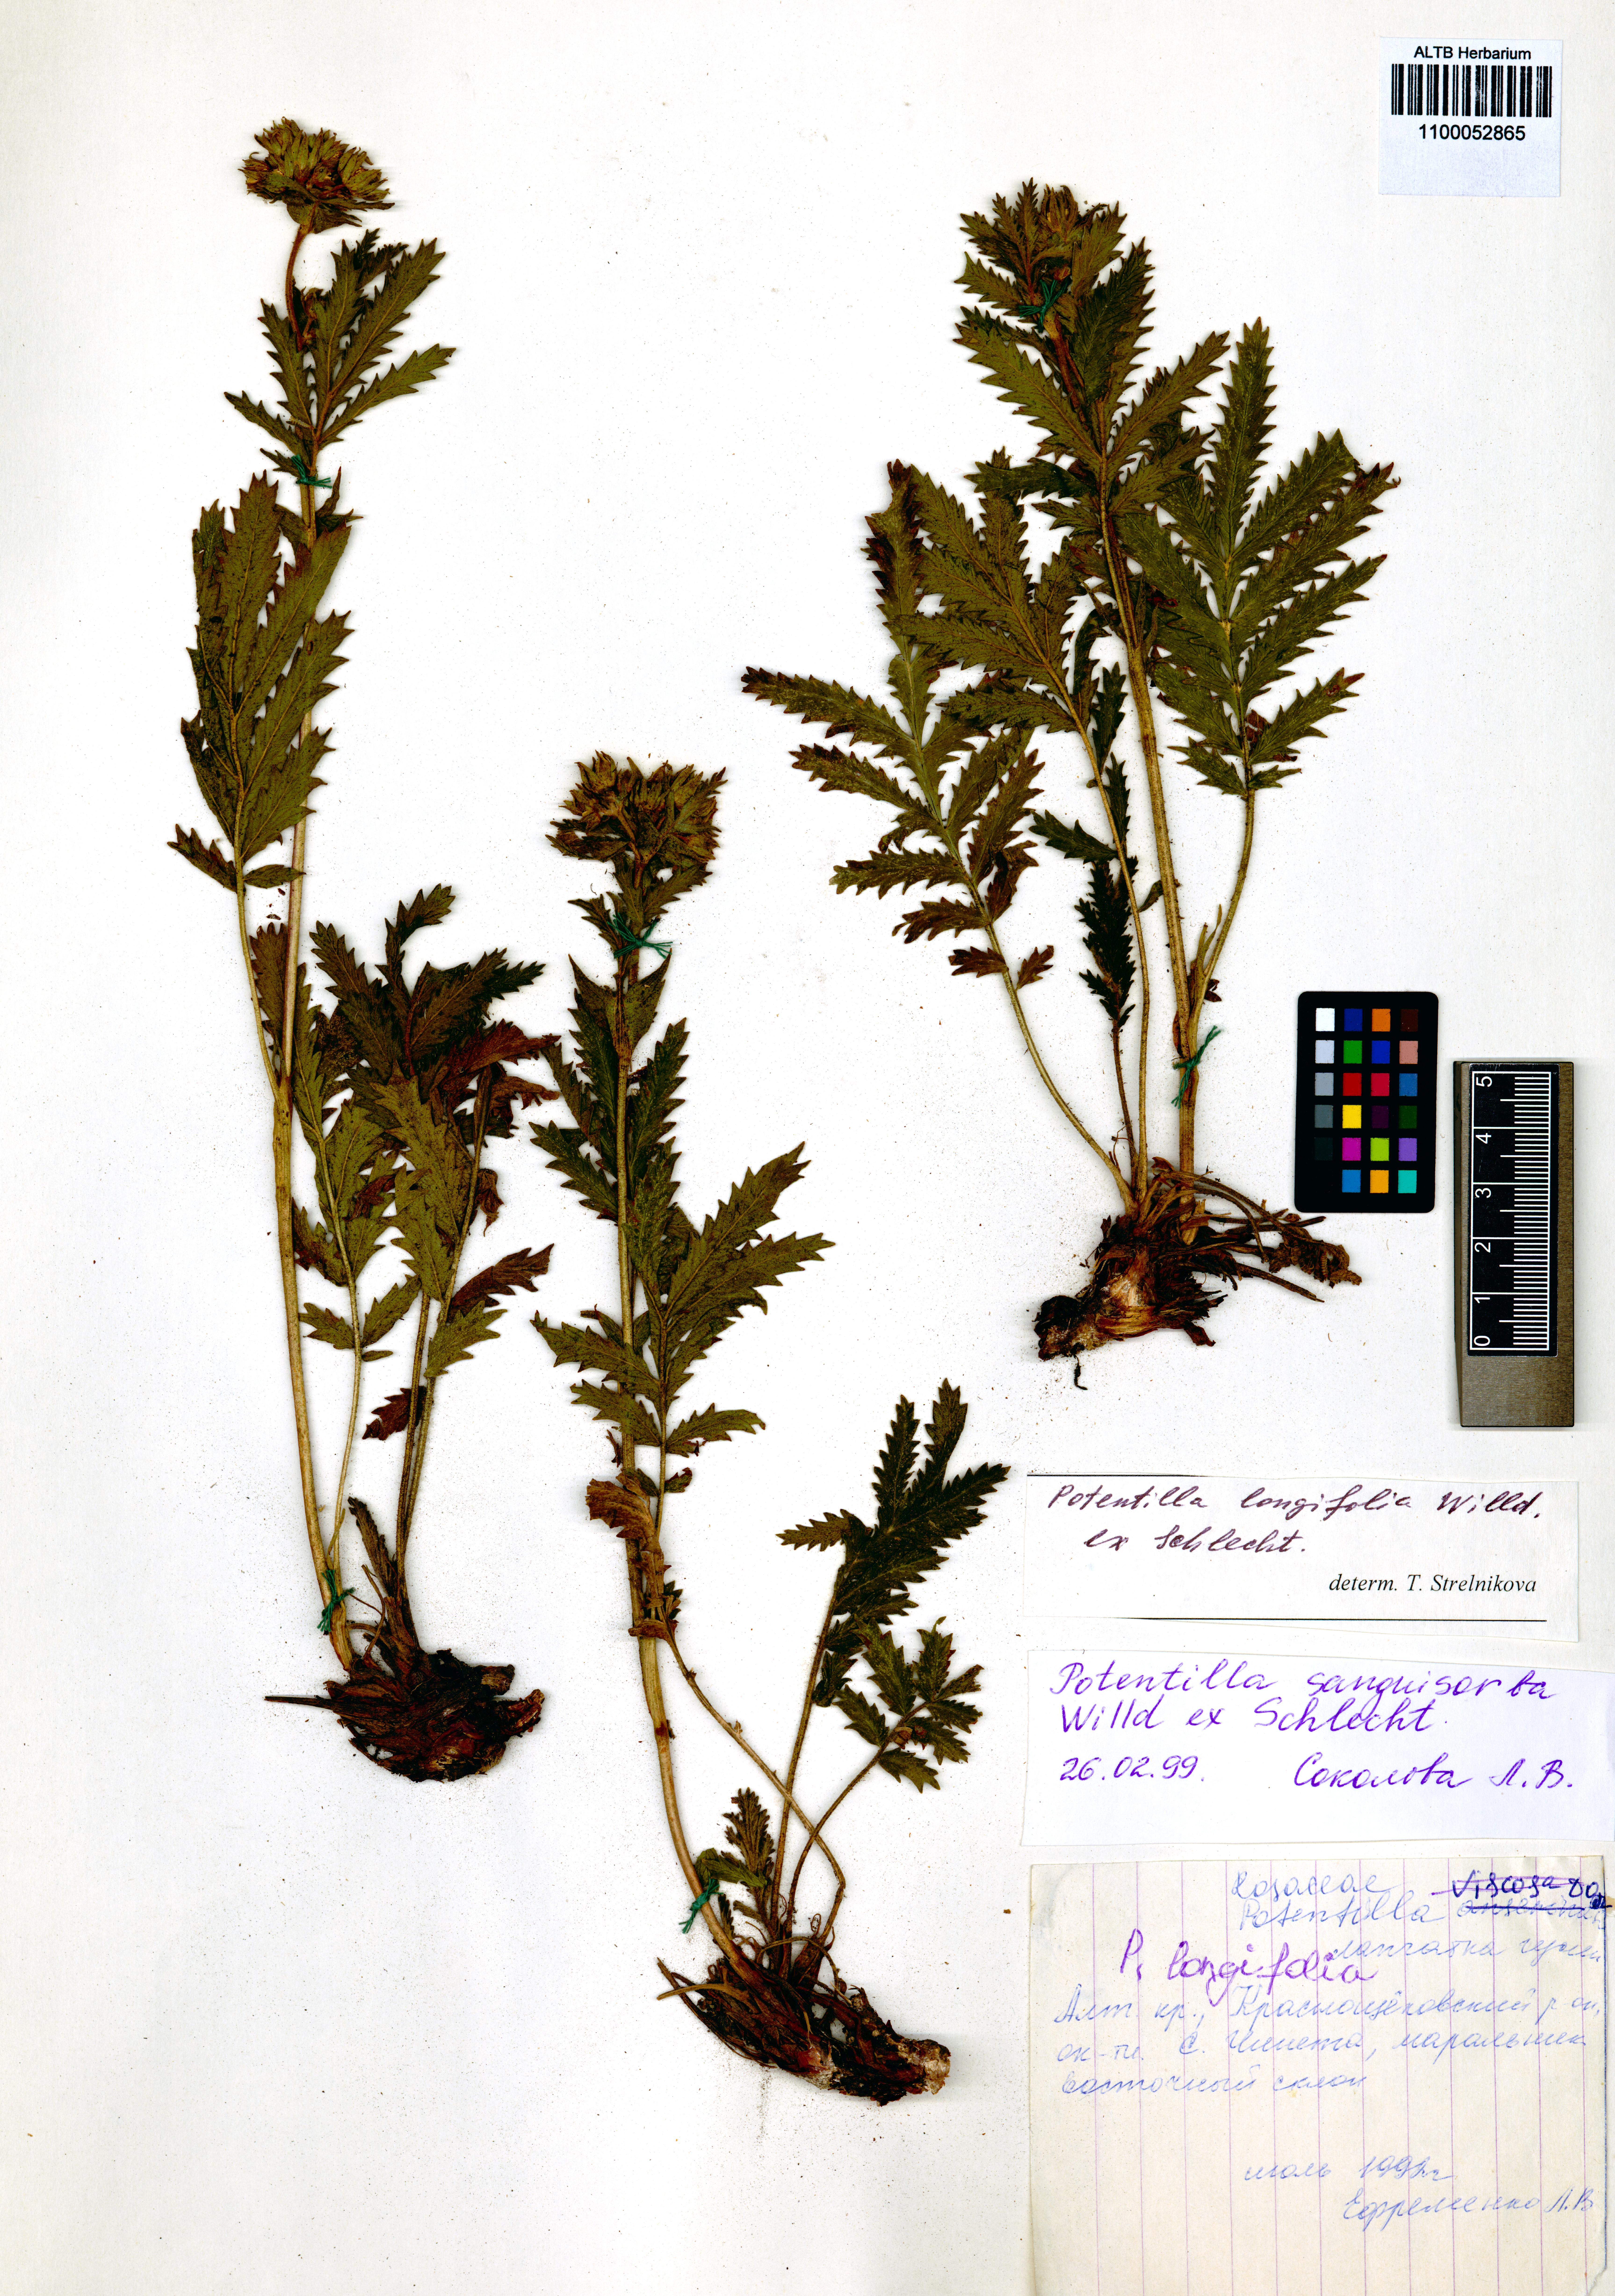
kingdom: Plantae
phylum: Tracheophyta
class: Magnoliopsida
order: Rosales
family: Rosaceae
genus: Potentilla
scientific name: Potentilla longifolia
